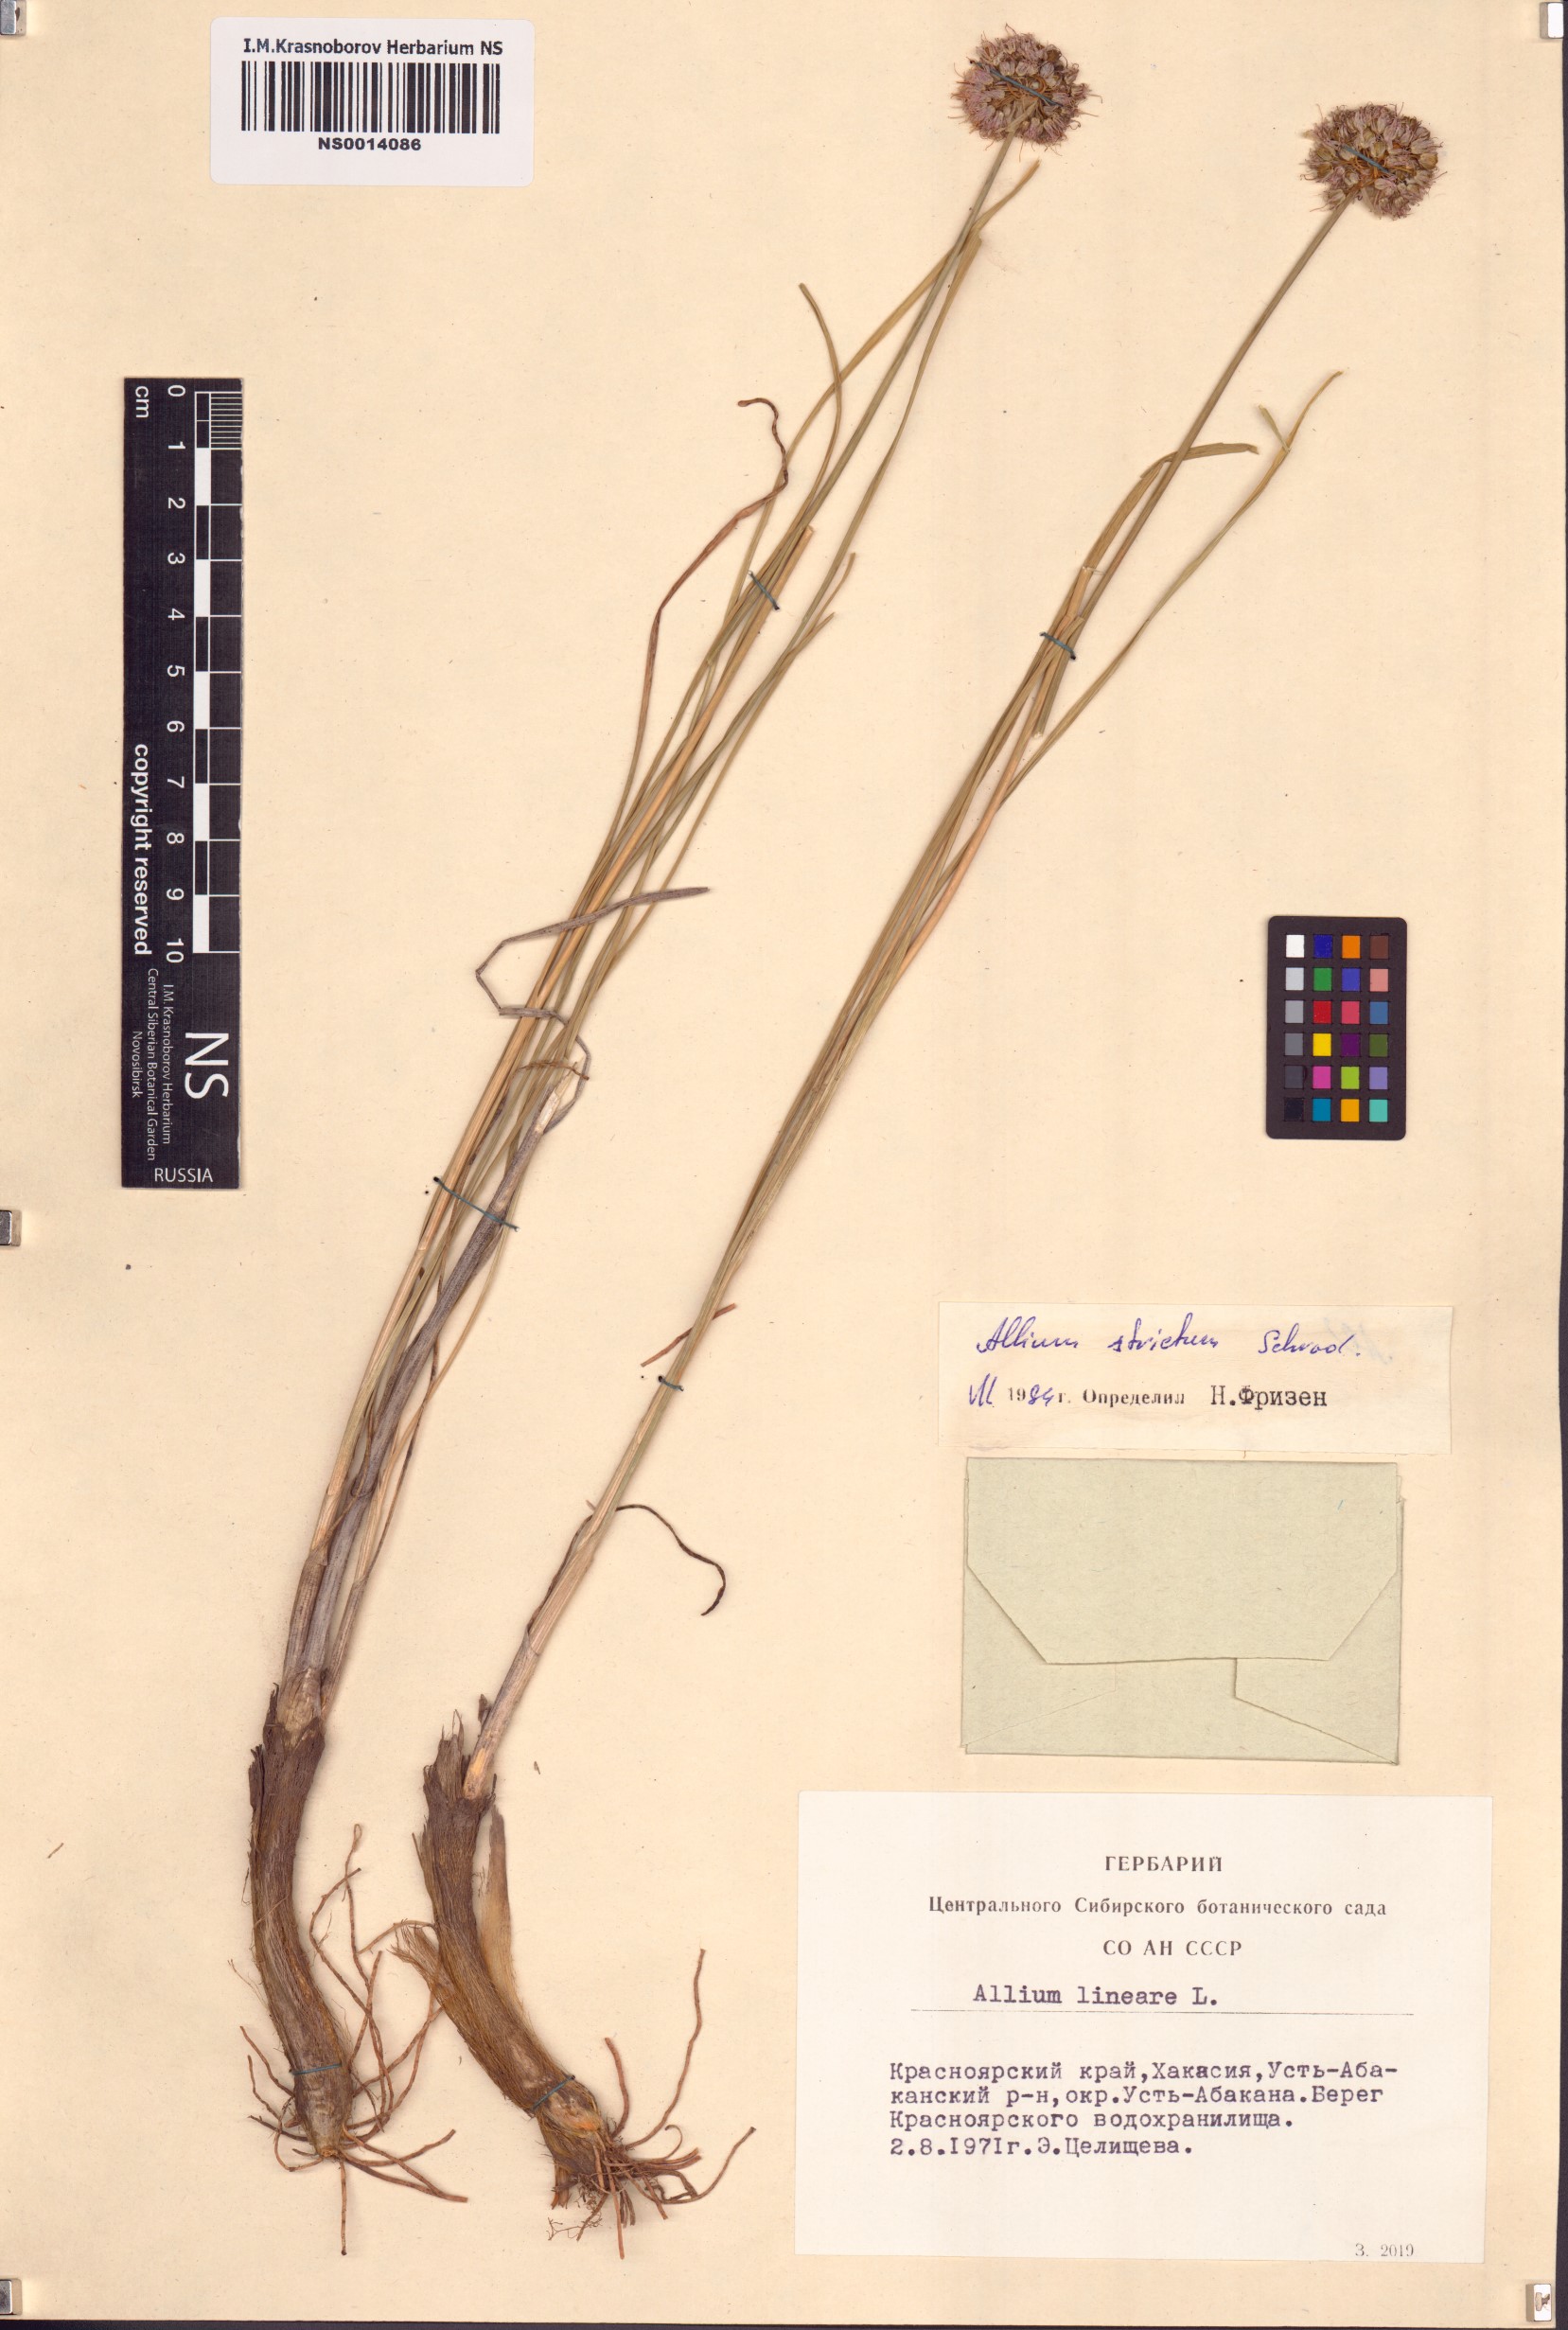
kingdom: Plantae
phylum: Tracheophyta
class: Liliopsida
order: Asparagales
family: Amaryllidaceae
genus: Allium
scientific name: Allium strictum
